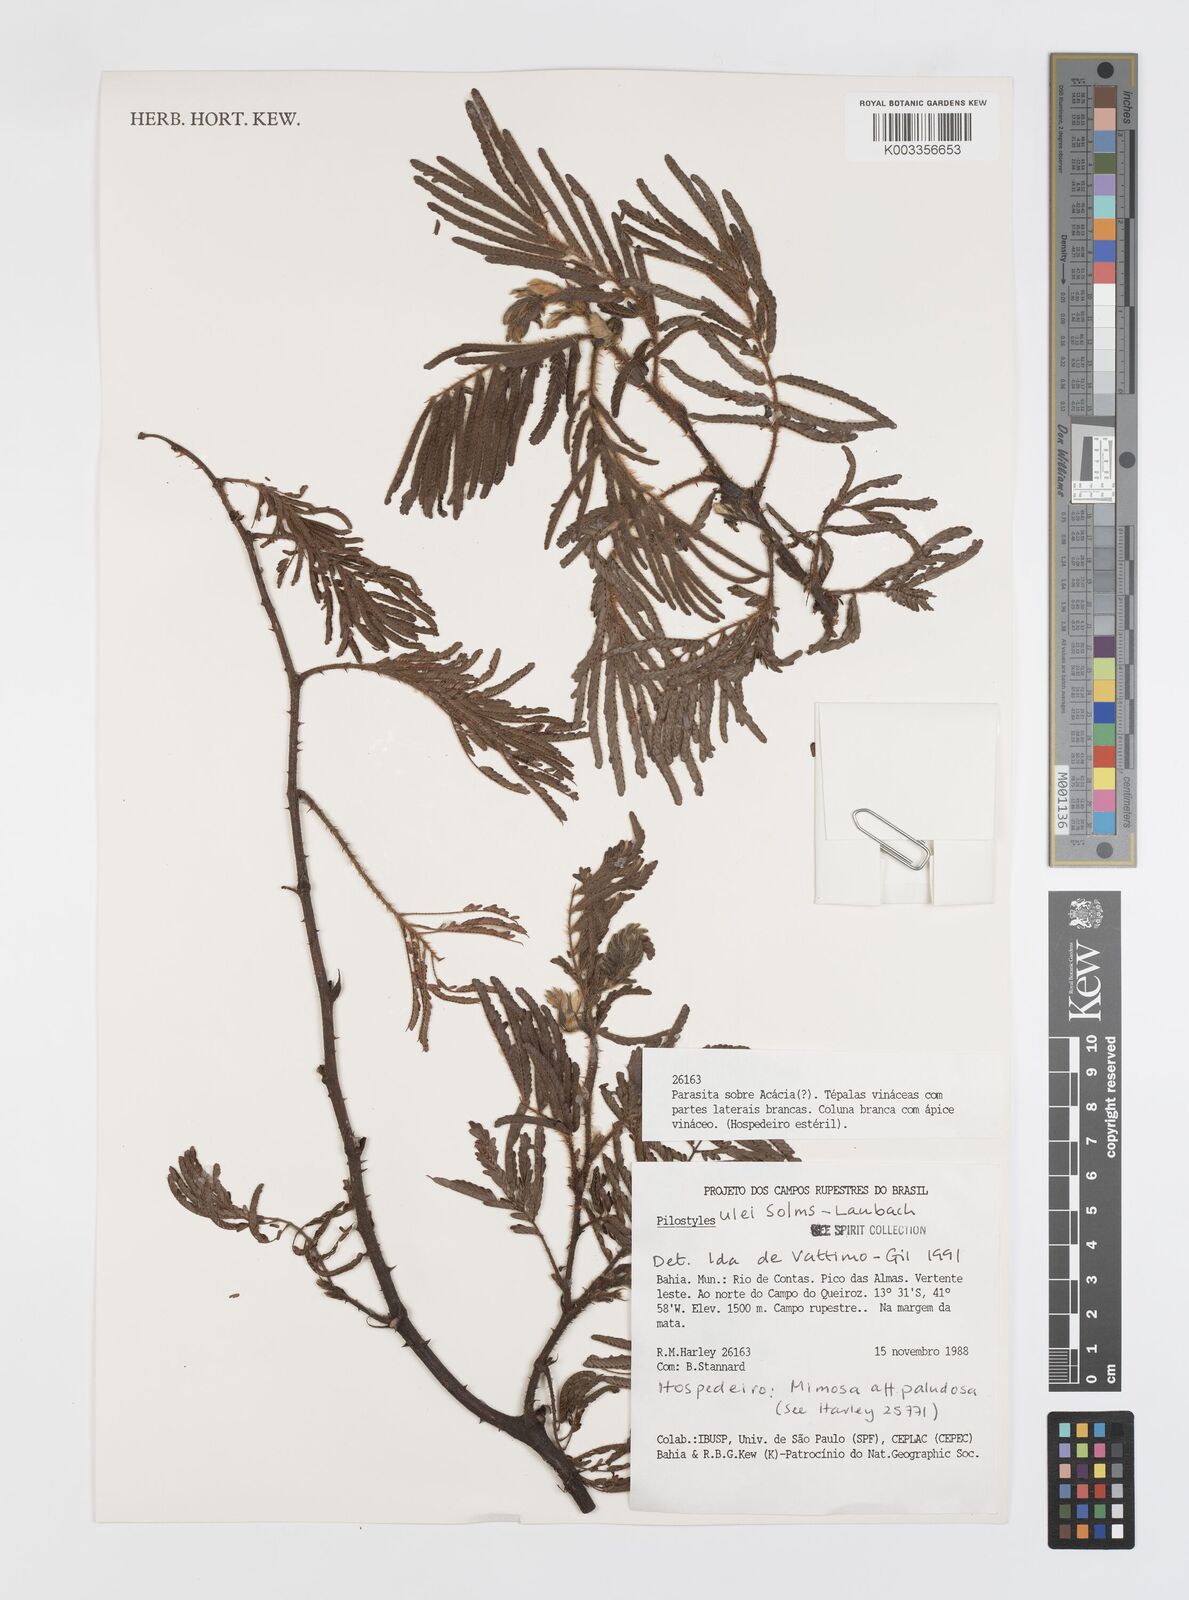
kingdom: Plantae
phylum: Tracheophyta
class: Magnoliopsida
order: Cucurbitales
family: Apodanthaceae
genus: Pilostyles
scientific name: Pilostyles blanchetii
